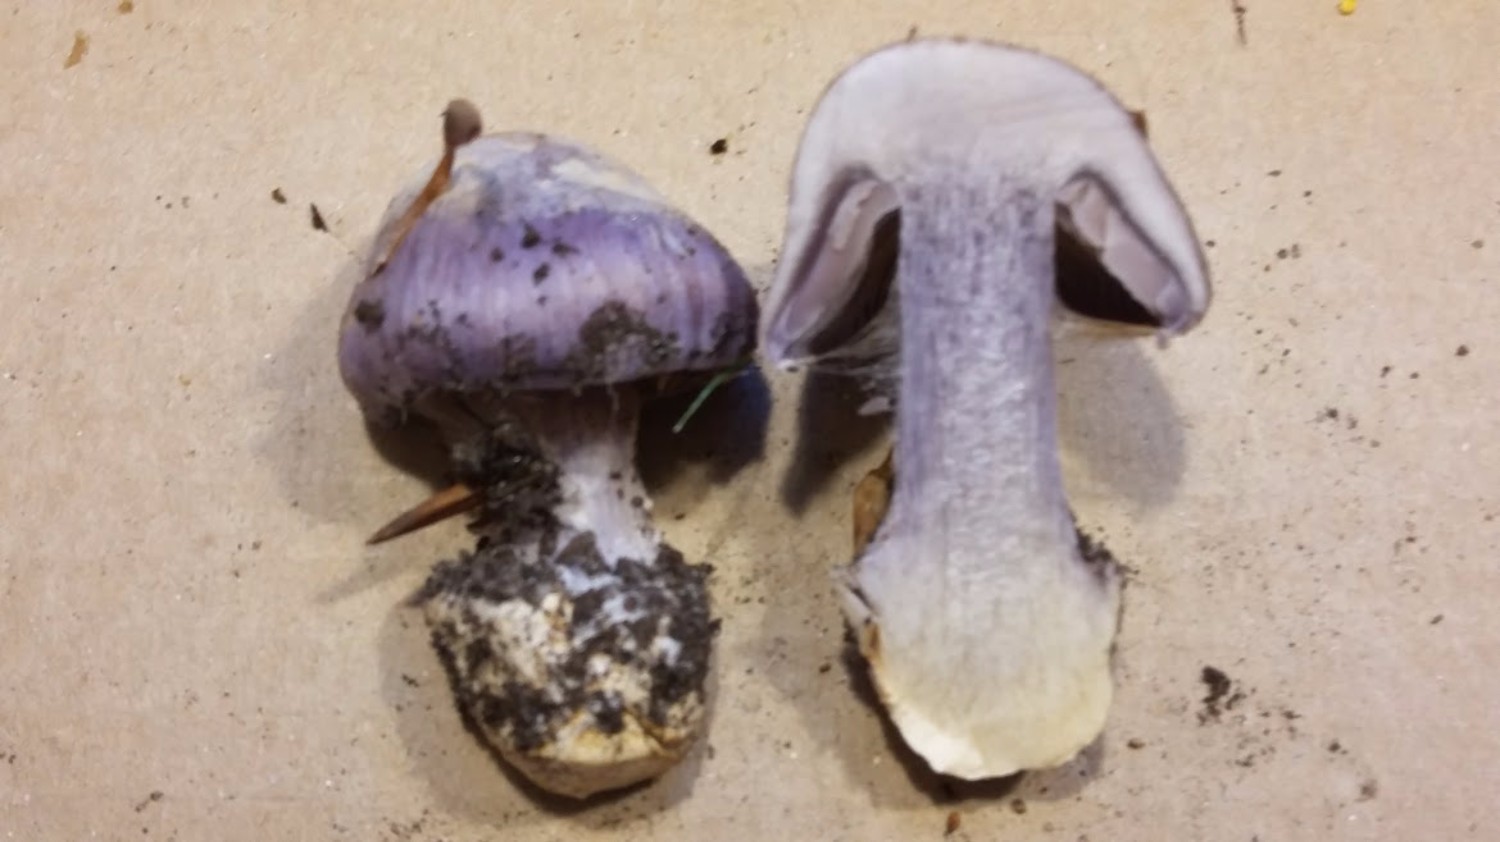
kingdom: Fungi
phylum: Basidiomycota
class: Agaricomycetes
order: Agaricales
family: Cortinariaceae
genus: Cortinarius
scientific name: Cortinarius caerulescens
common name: blåkødet slørhat
